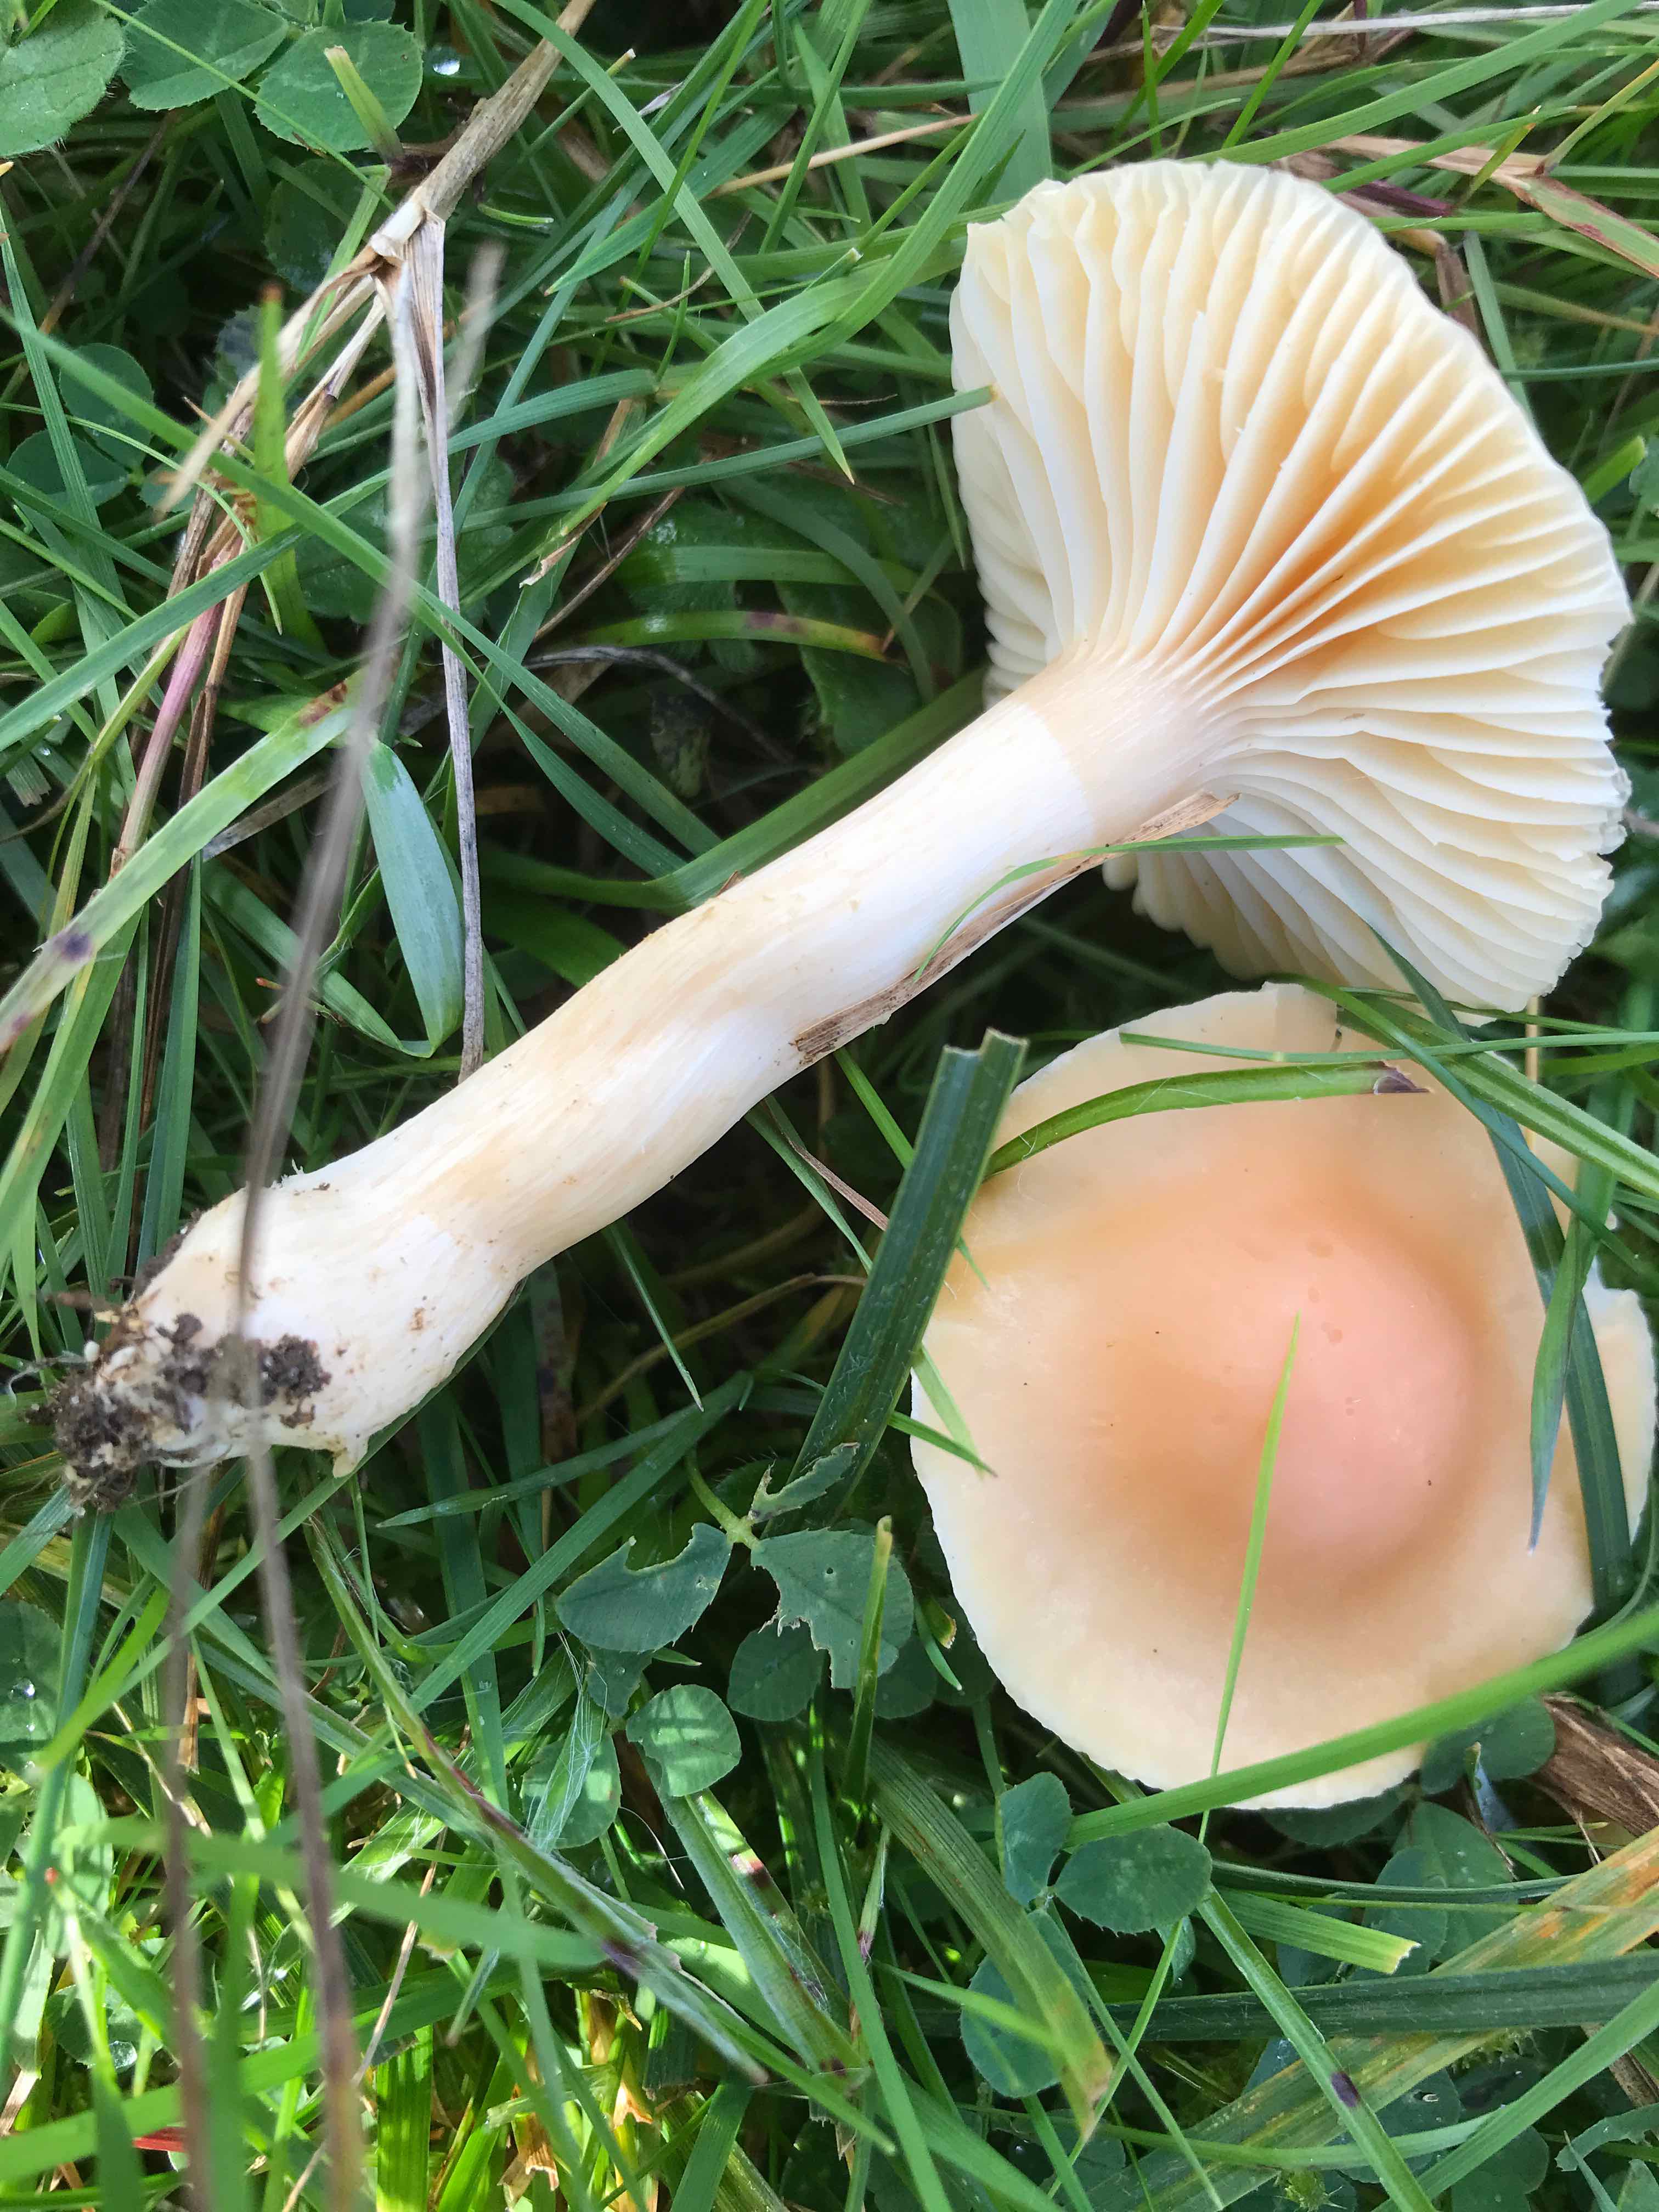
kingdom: Fungi
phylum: Basidiomycota
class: Agaricomycetes
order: Agaricales
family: Hygrophoraceae
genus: Cuphophyllus
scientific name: Cuphophyllus pratensis
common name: eng-vokshat
